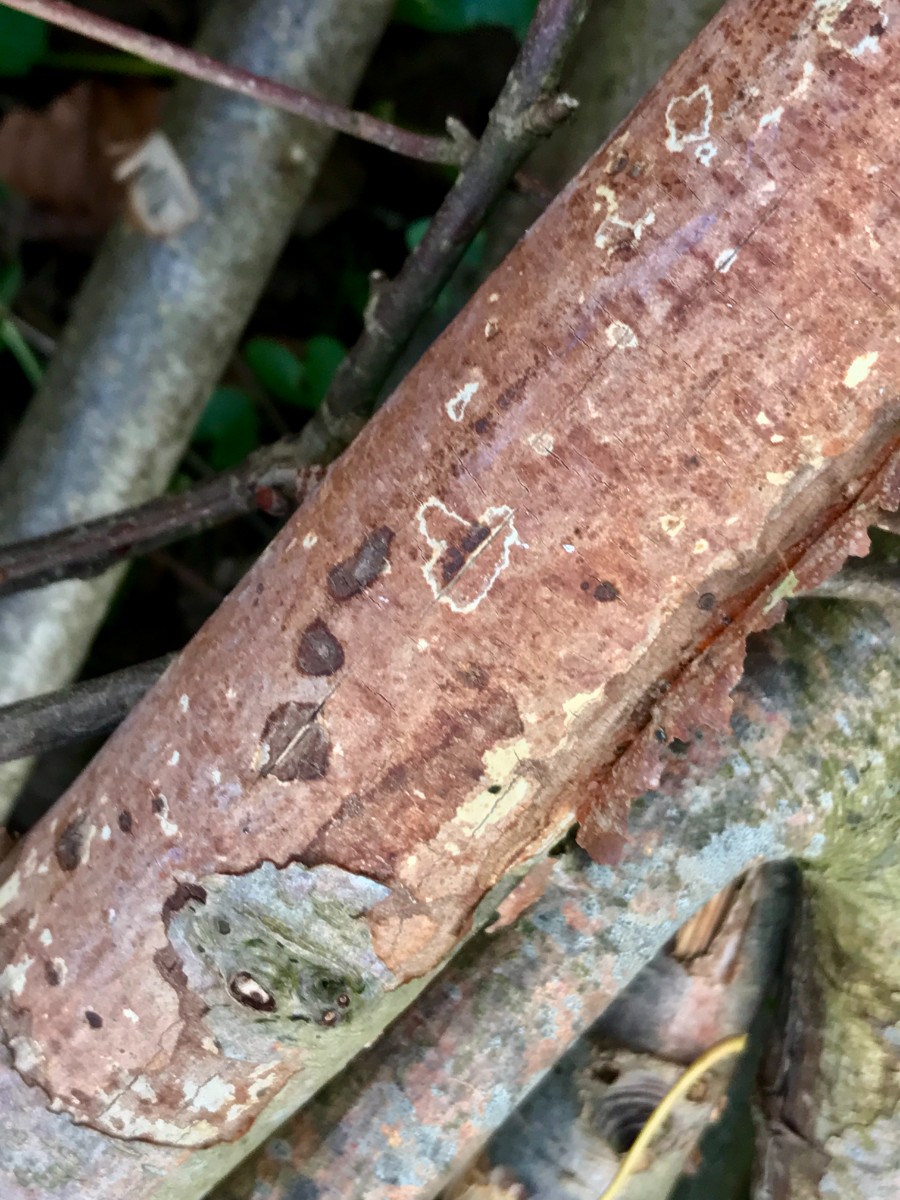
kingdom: Fungi
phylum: Basidiomycota
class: Agaricomycetes
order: Corticiales
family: Vuilleminiaceae
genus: Vuilleminia
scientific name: Vuilleminia comedens
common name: almindelig barksprænger
